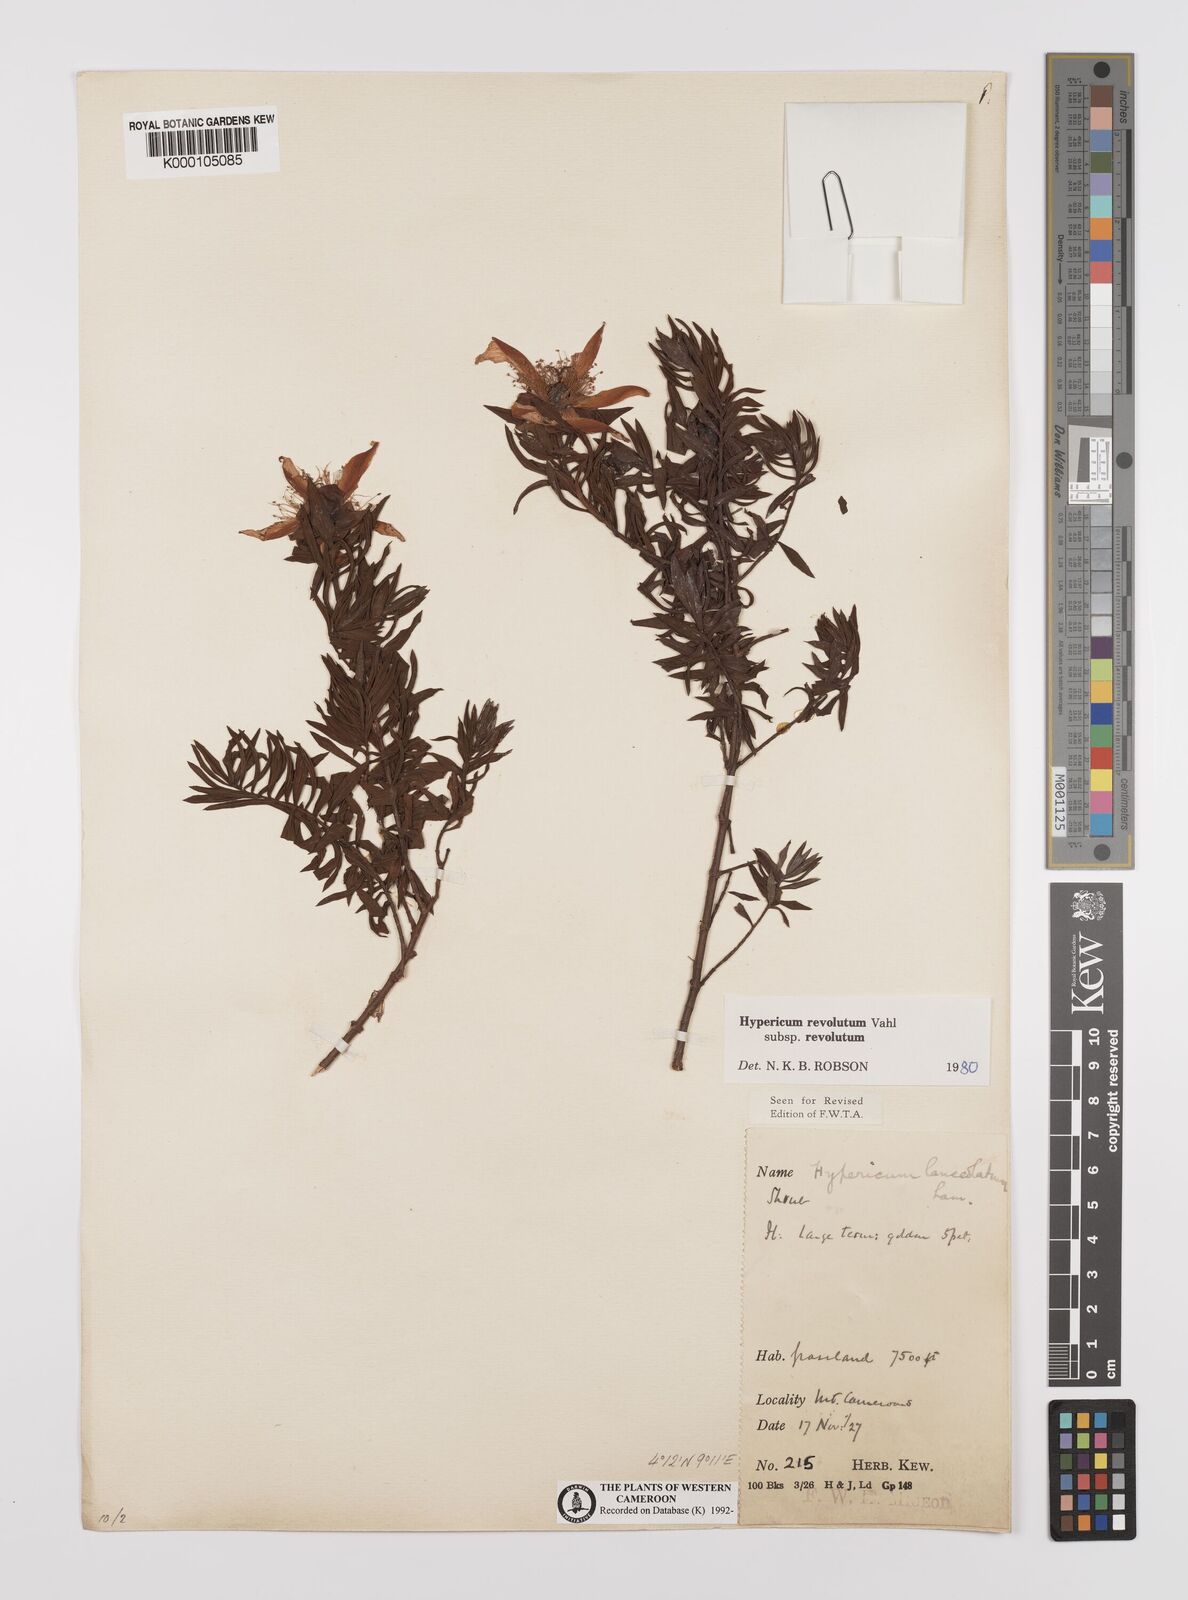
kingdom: Plantae
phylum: Tracheophyta
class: Magnoliopsida
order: Malpighiales
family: Hypericaceae
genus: Hypericum
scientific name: Hypericum revolutum
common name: Curry bush
